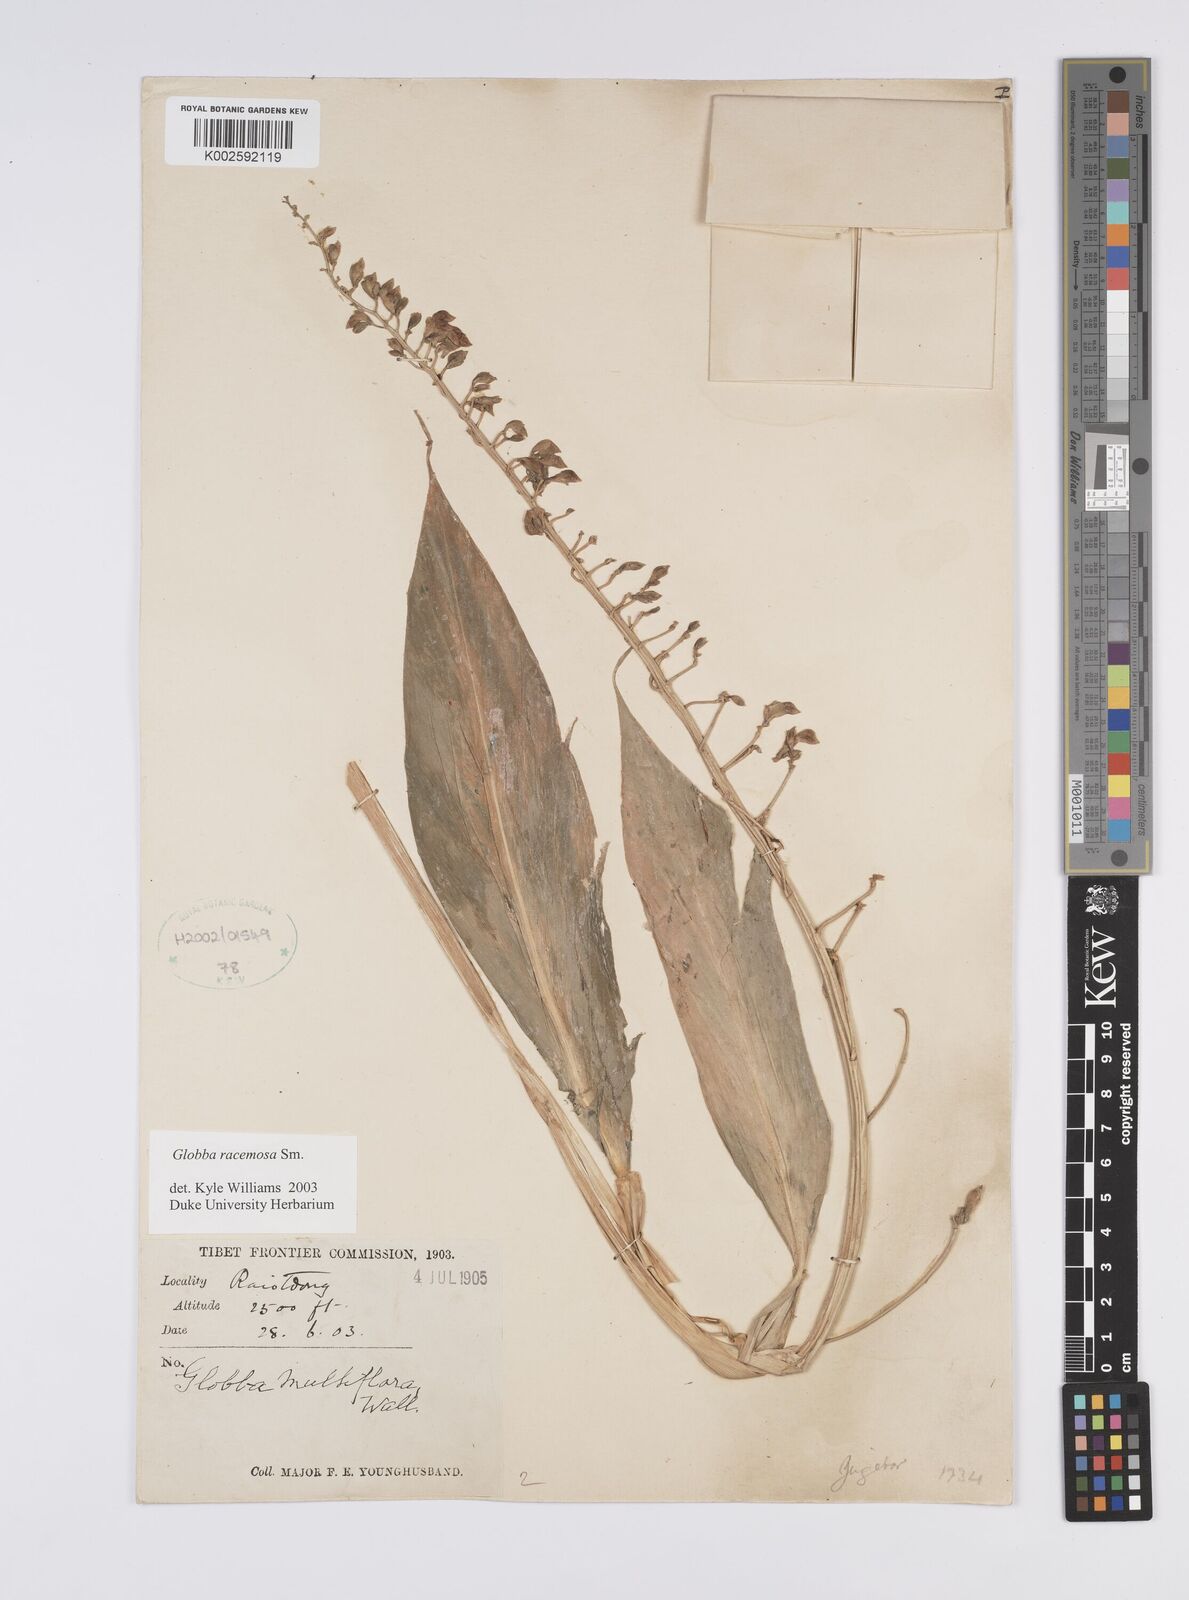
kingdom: Plantae
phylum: Tracheophyta
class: Liliopsida
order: Zingiberales
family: Zingiberaceae
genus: Globba
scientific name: Globba racemosa
